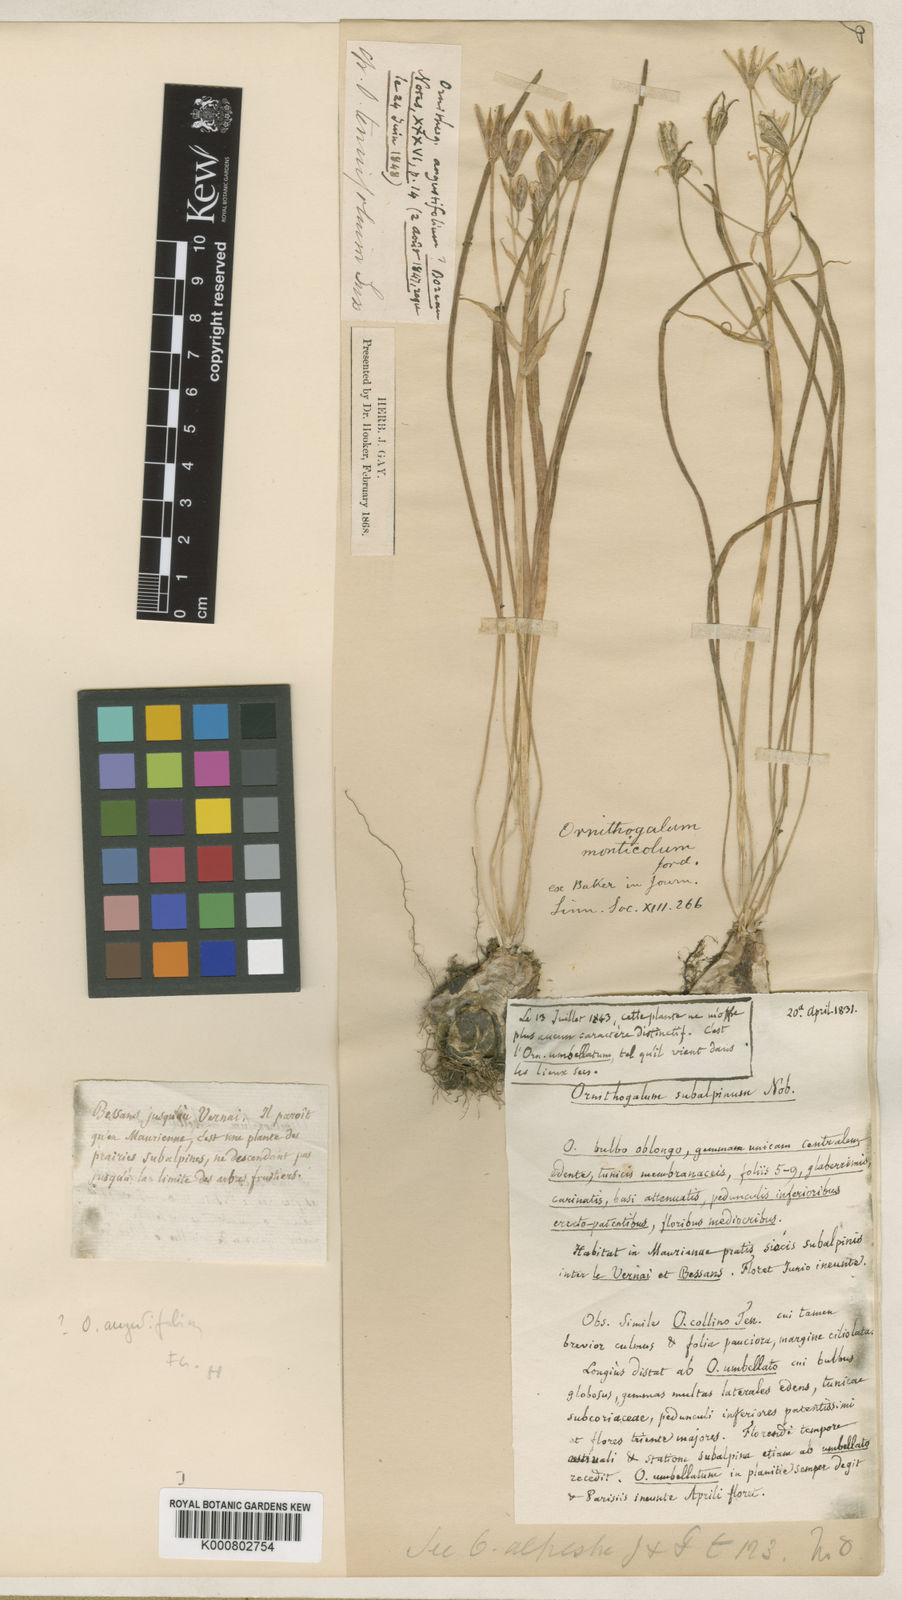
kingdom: Plantae
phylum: Tracheophyta
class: Liliopsida
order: Asparagales
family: Asparagaceae
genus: Ornithogalum
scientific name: Ornithogalum umbellatum
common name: Garden star-of-bethlehem
